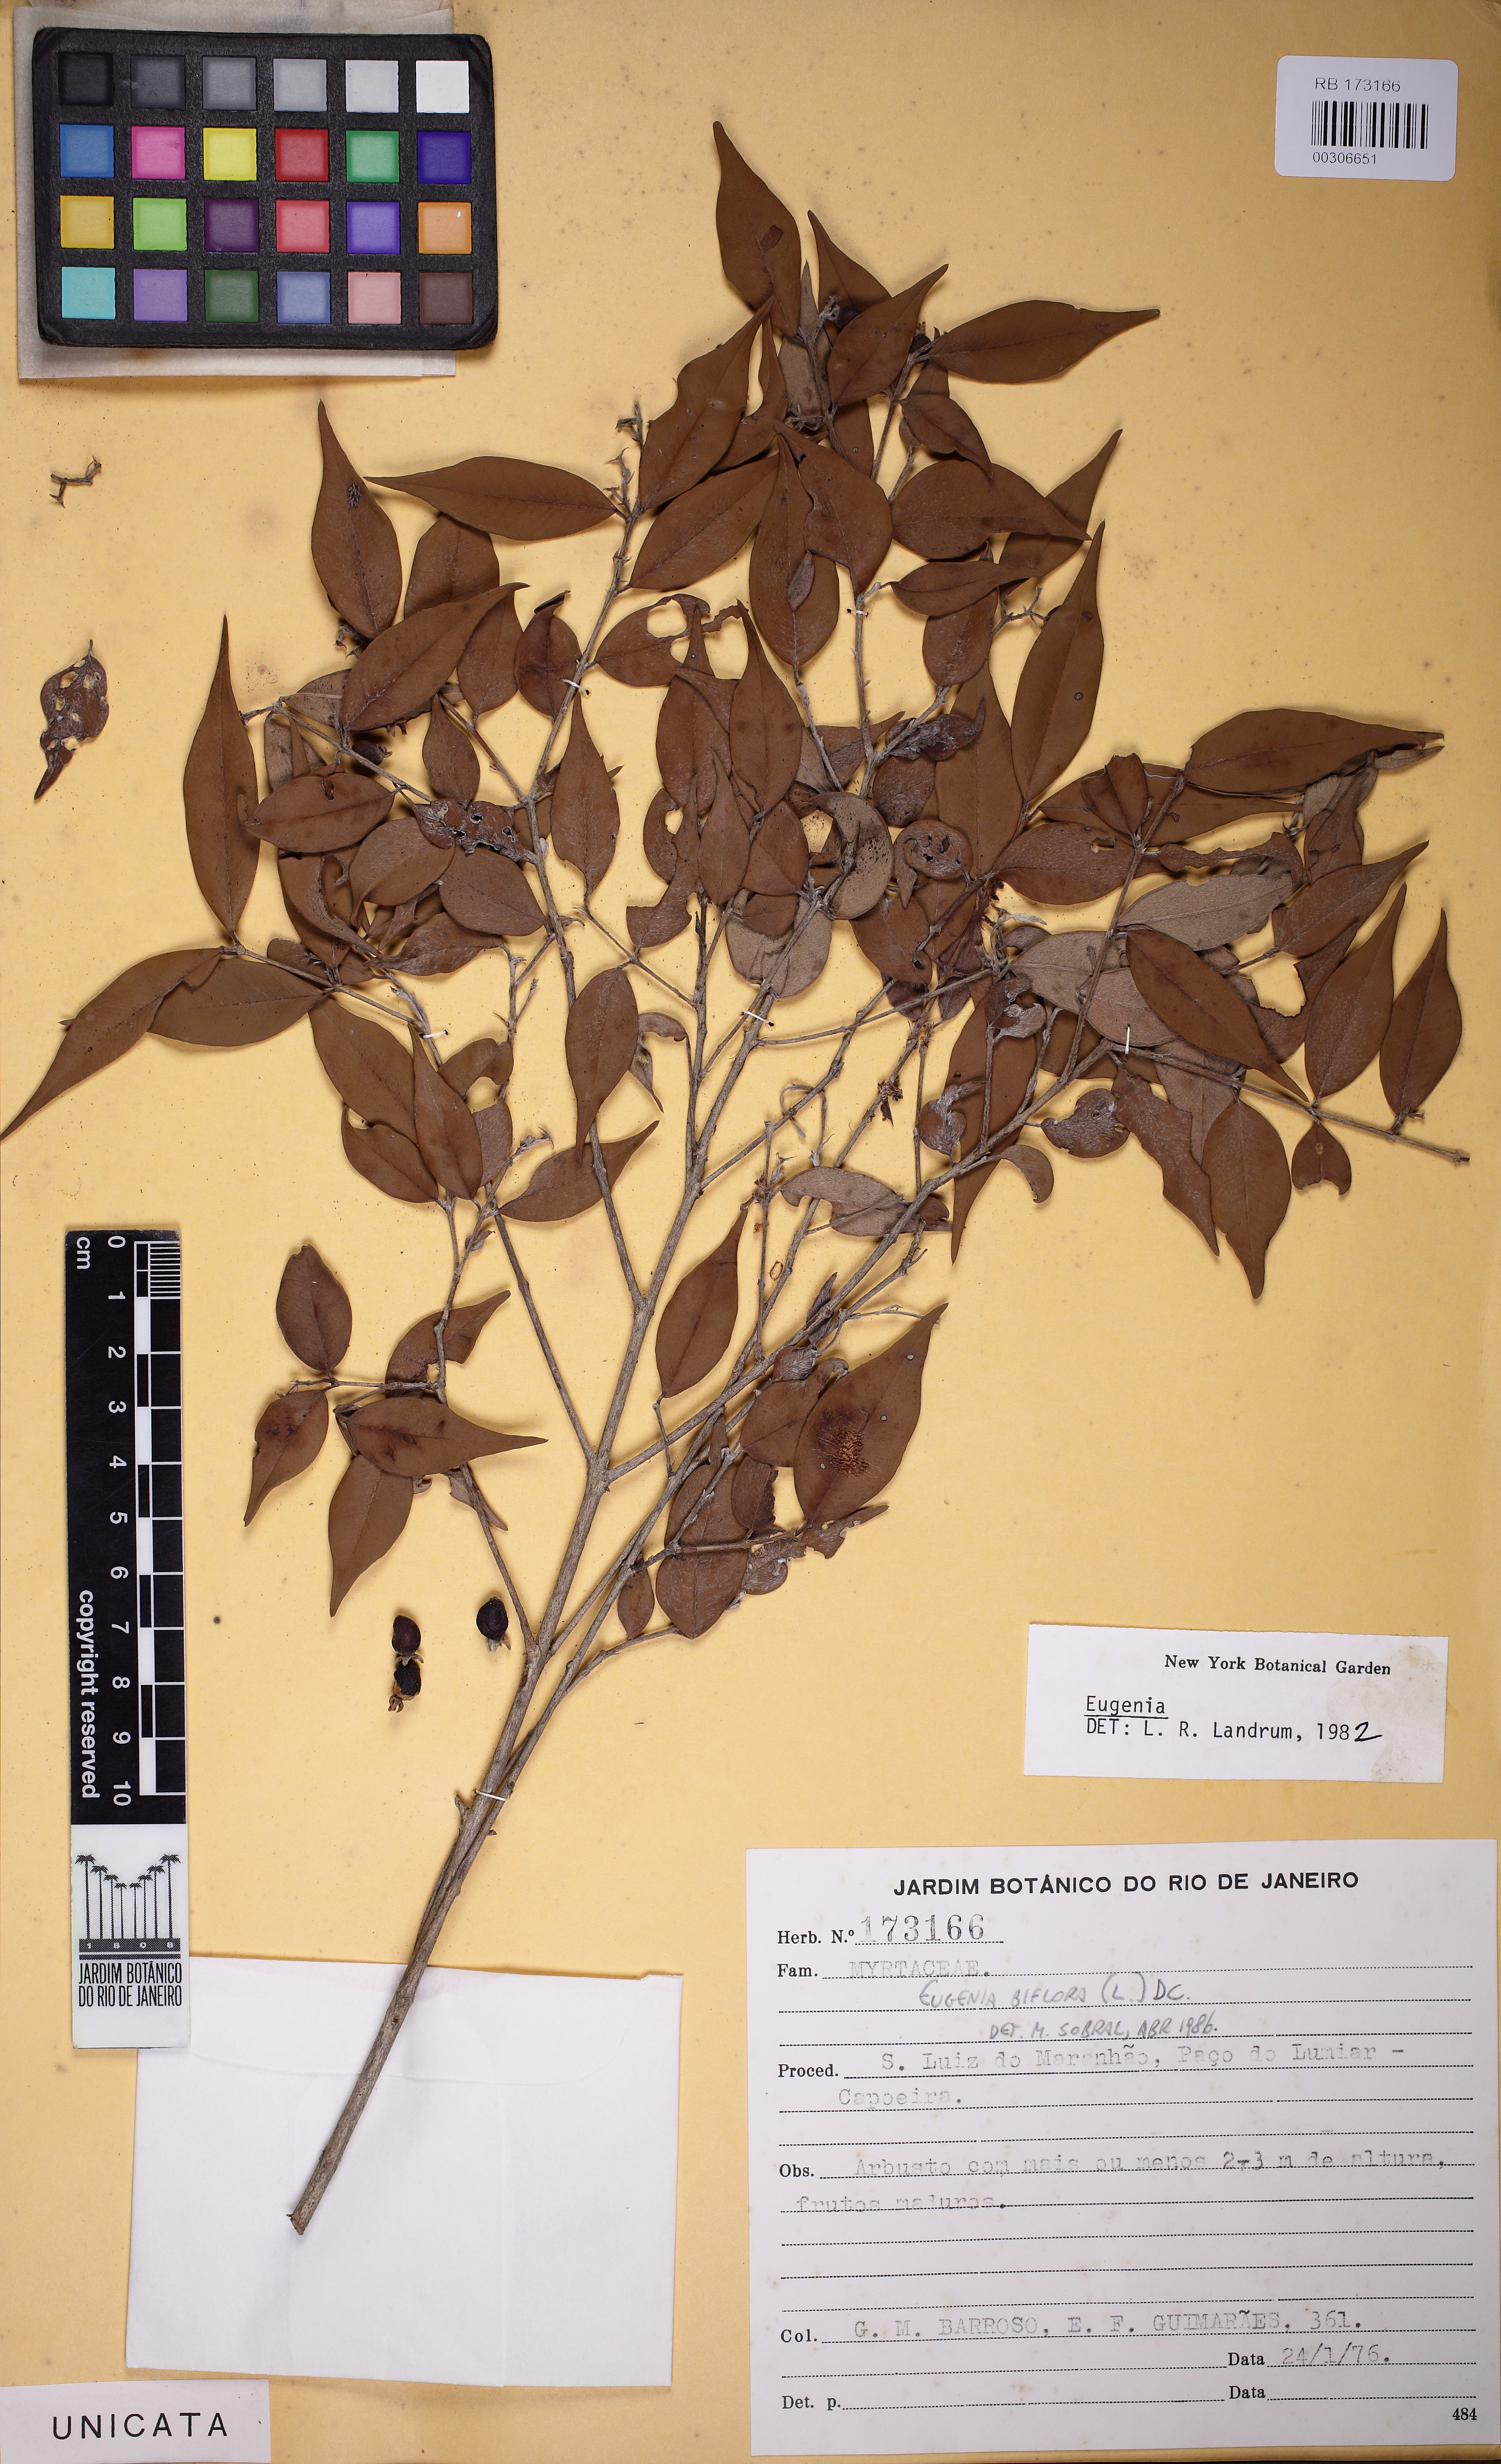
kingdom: Plantae
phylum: Tracheophyta
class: Magnoliopsida
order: Myrtales
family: Myrtaceae
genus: Eugenia
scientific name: Eugenia biflora
